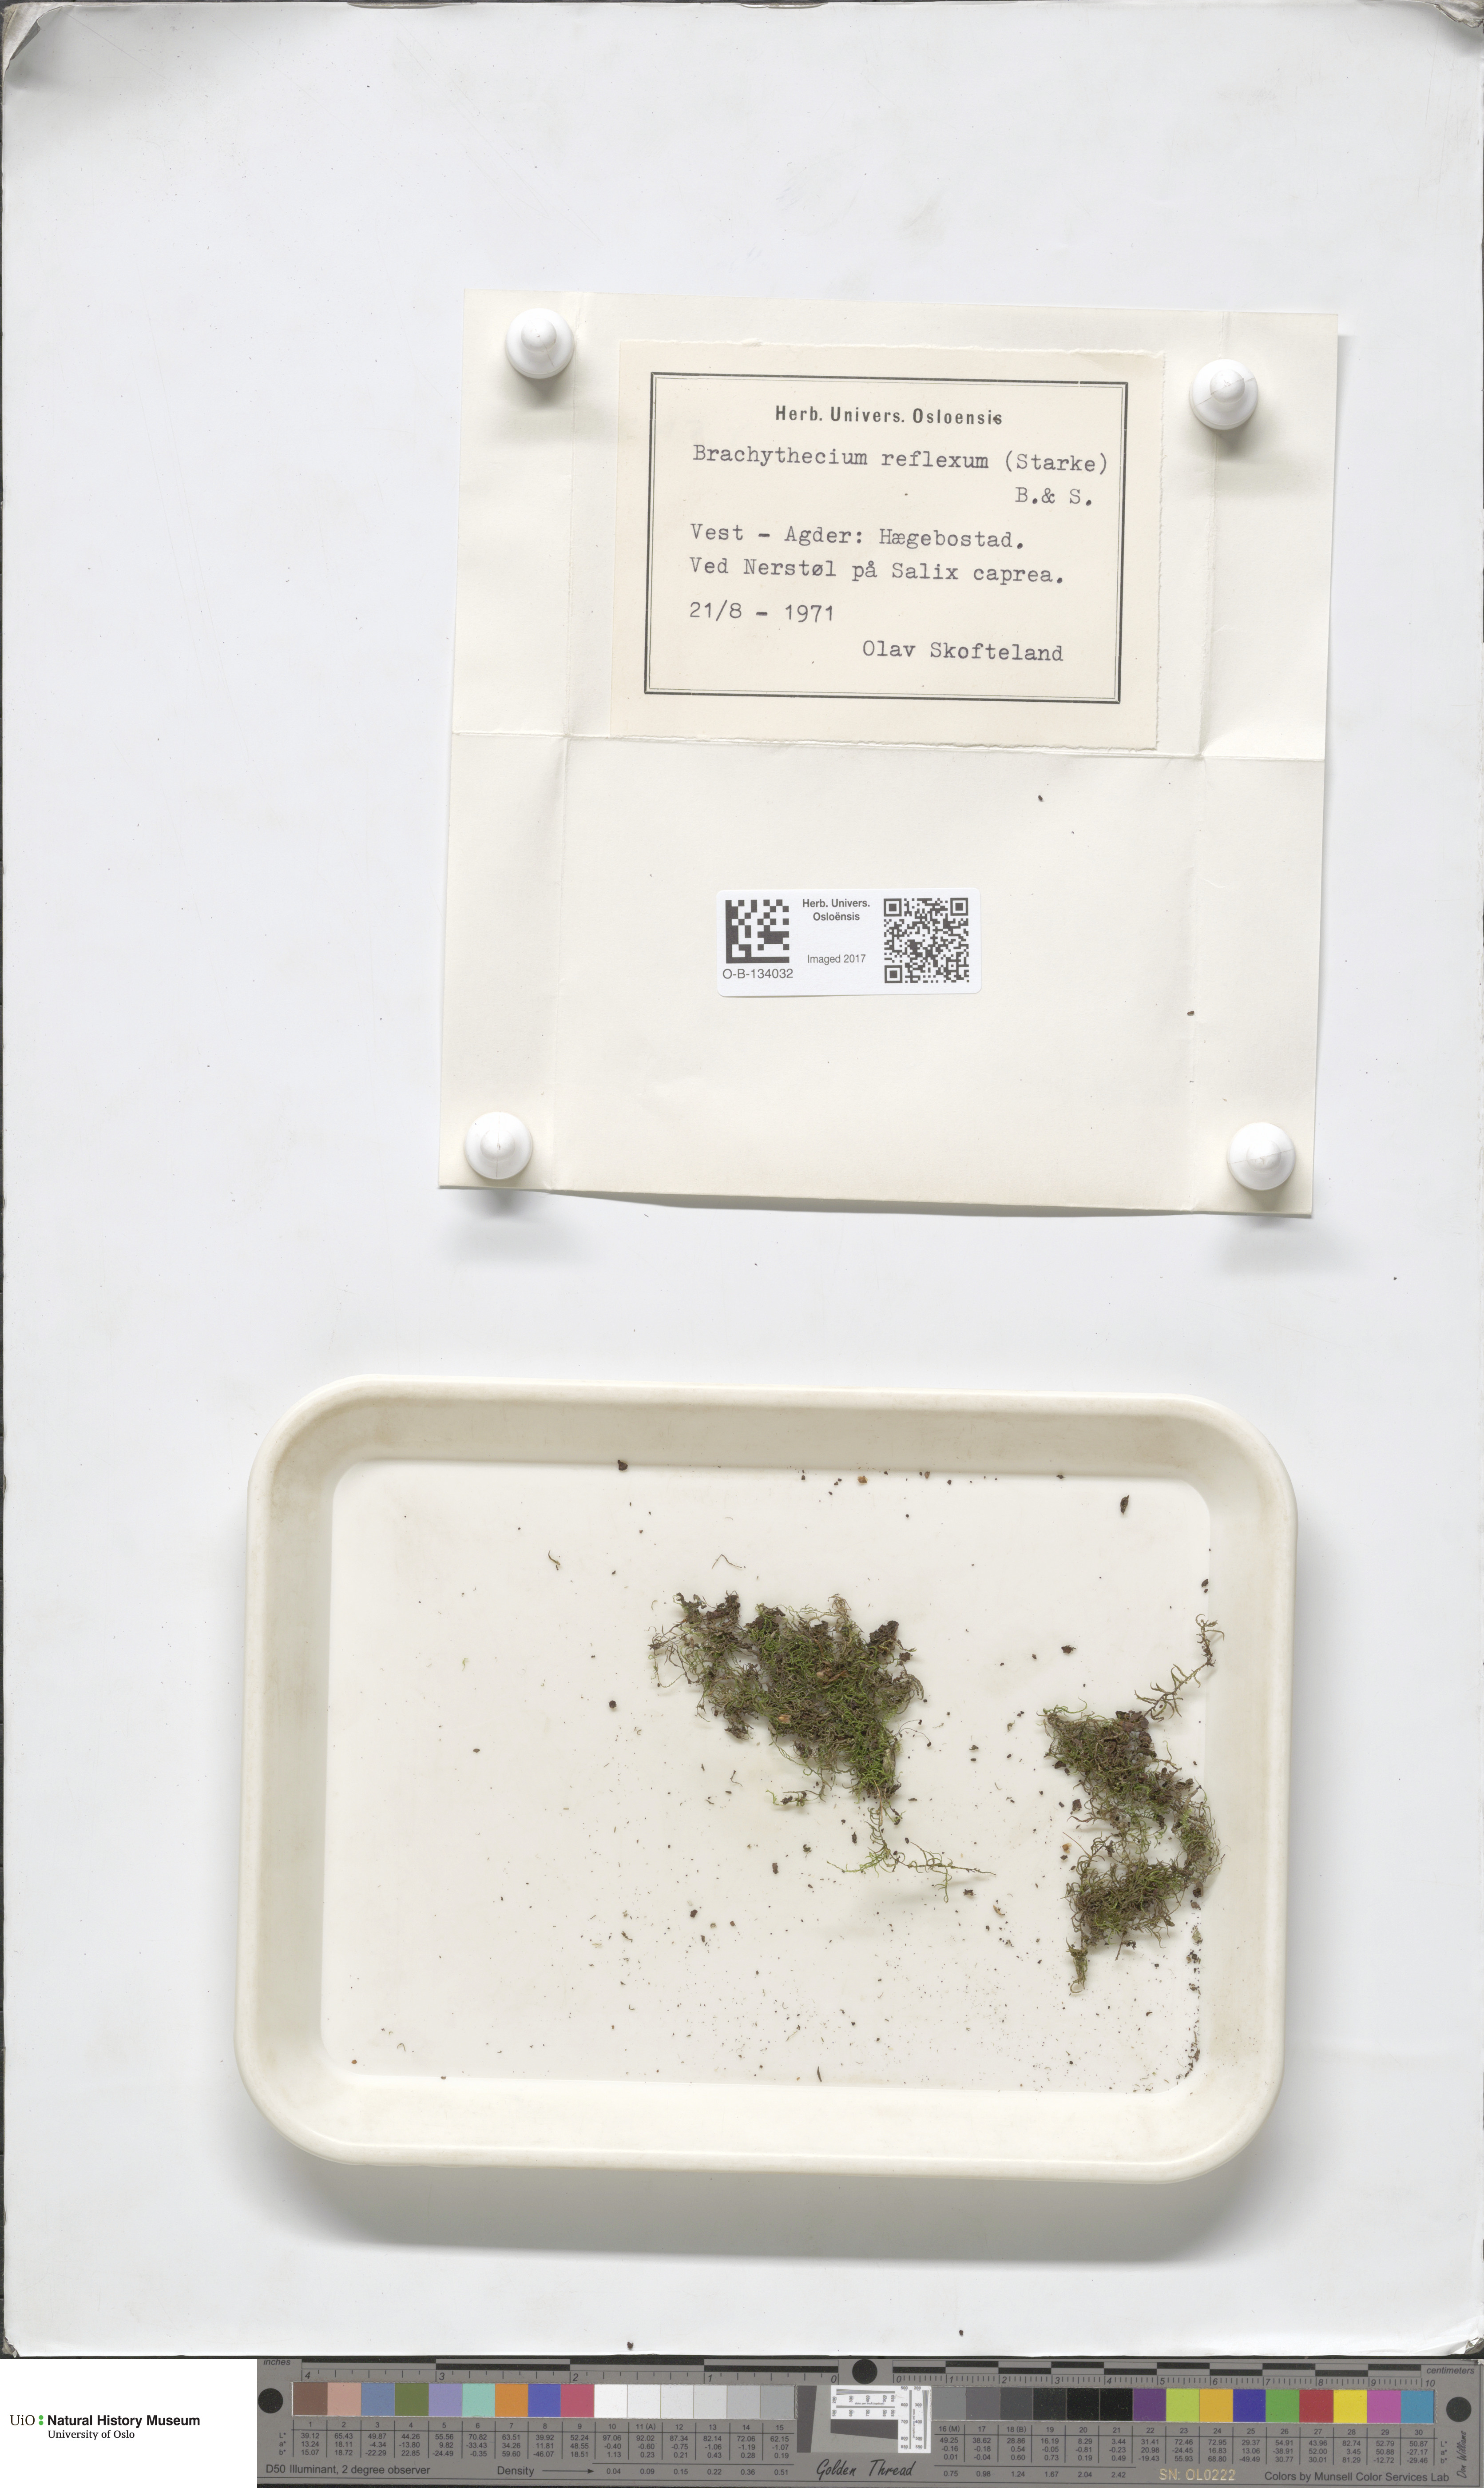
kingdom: Plantae
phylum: Bryophyta
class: Bryopsida
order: Hypnales
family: Brachytheciaceae
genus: Sciuro-hypnum
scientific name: Sciuro-hypnum reflexum
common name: Reflexed feather-moss
